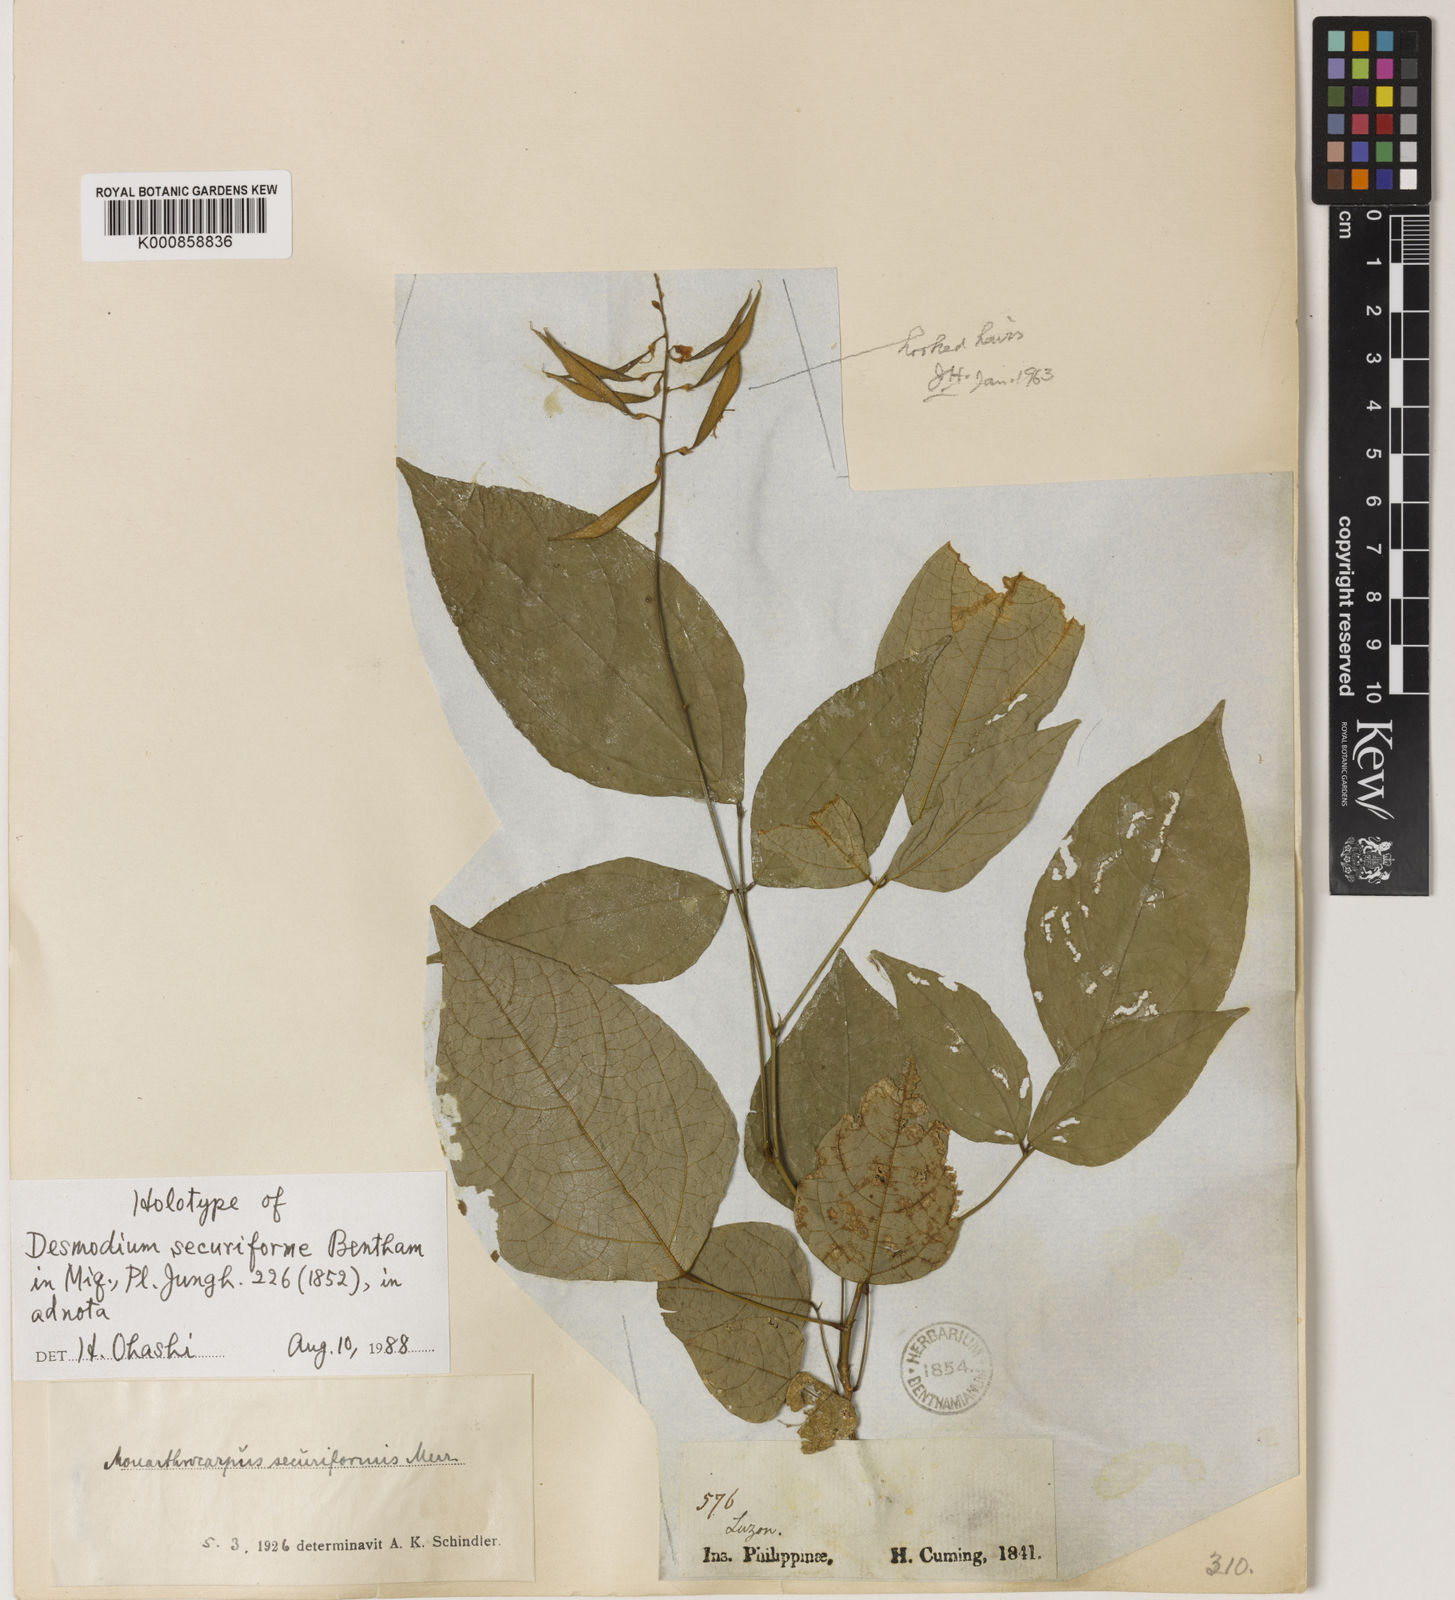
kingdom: Plantae
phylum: Tracheophyta
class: Magnoliopsida
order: Fabales
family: Fabaceae
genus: Monarthrocarpus
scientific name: Monarthrocarpus securiformis
